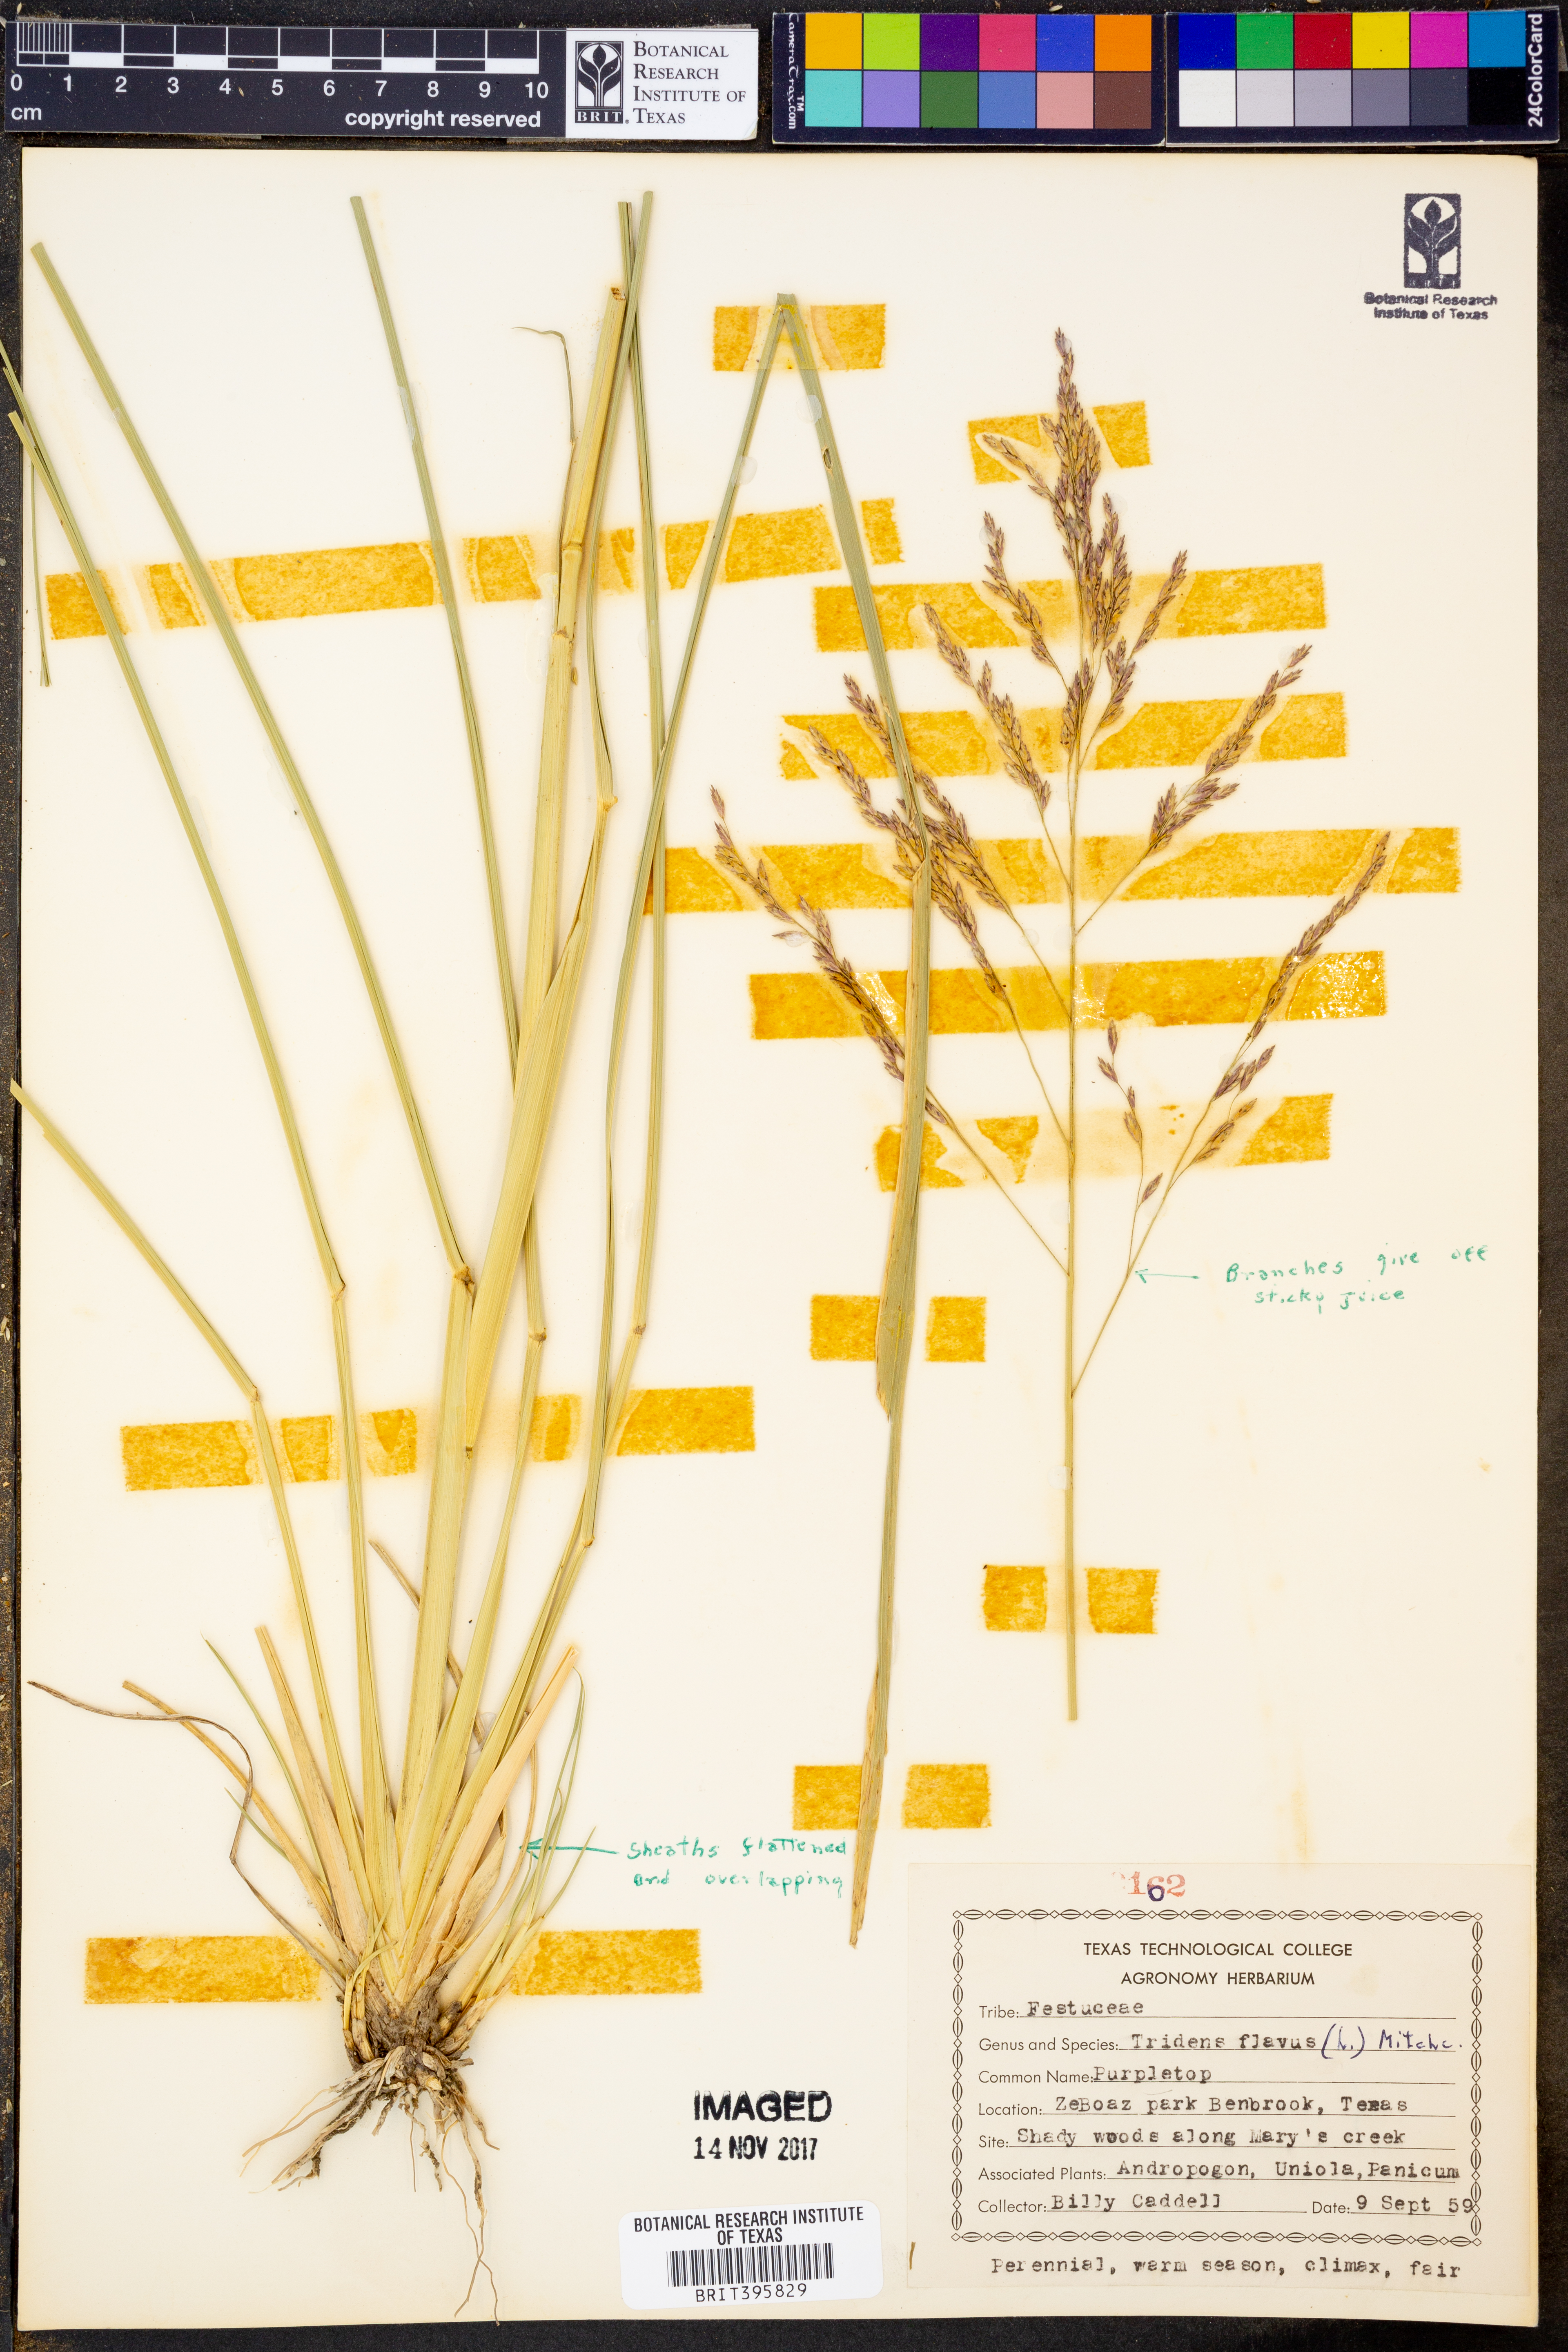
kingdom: Plantae
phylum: Tracheophyta
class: Liliopsida
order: Poales
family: Poaceae
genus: Tridens
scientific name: Tridens flavus
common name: Purpletop
